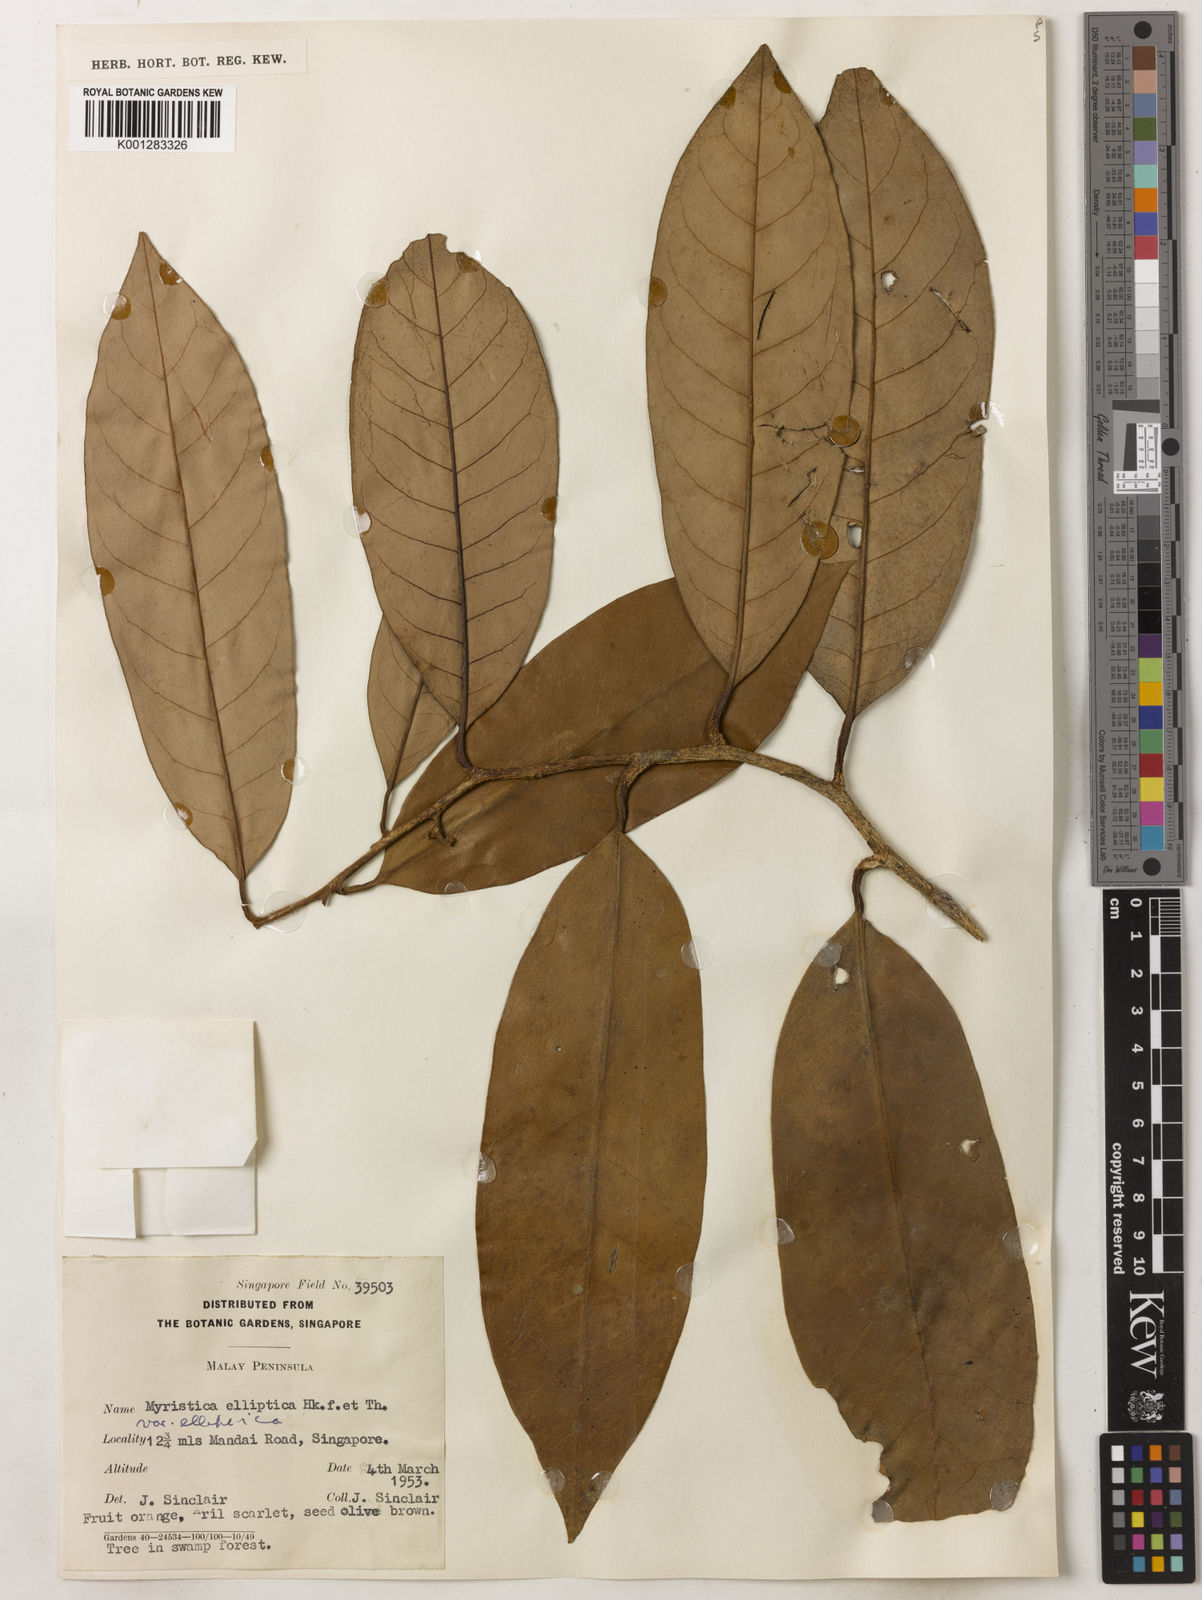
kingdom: Plantae
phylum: Tracheophyta
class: Magnoliopsida
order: Magnoliales
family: Myristicaceae
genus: Myristica
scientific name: Myristica elliptica
